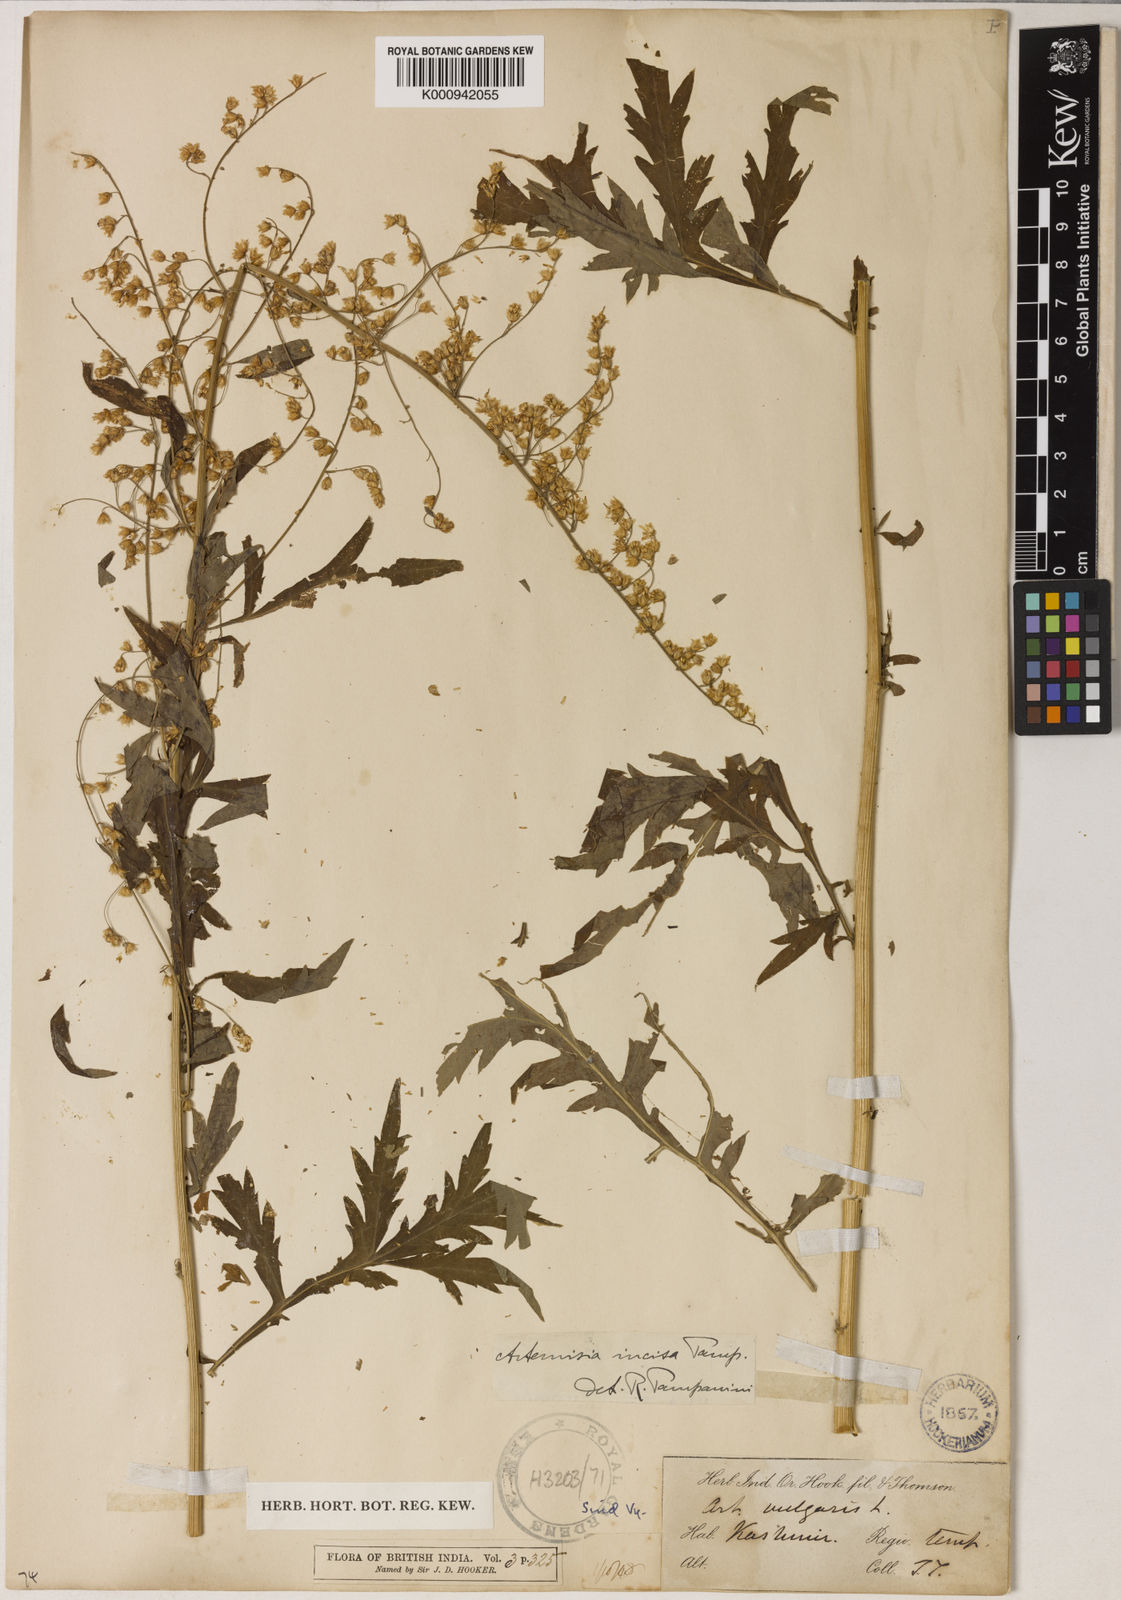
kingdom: Plantae
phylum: Tracheophyta
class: Magnoliopsida
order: Asterales
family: Asteraceae
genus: Artemisia
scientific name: Artemisia incisa
